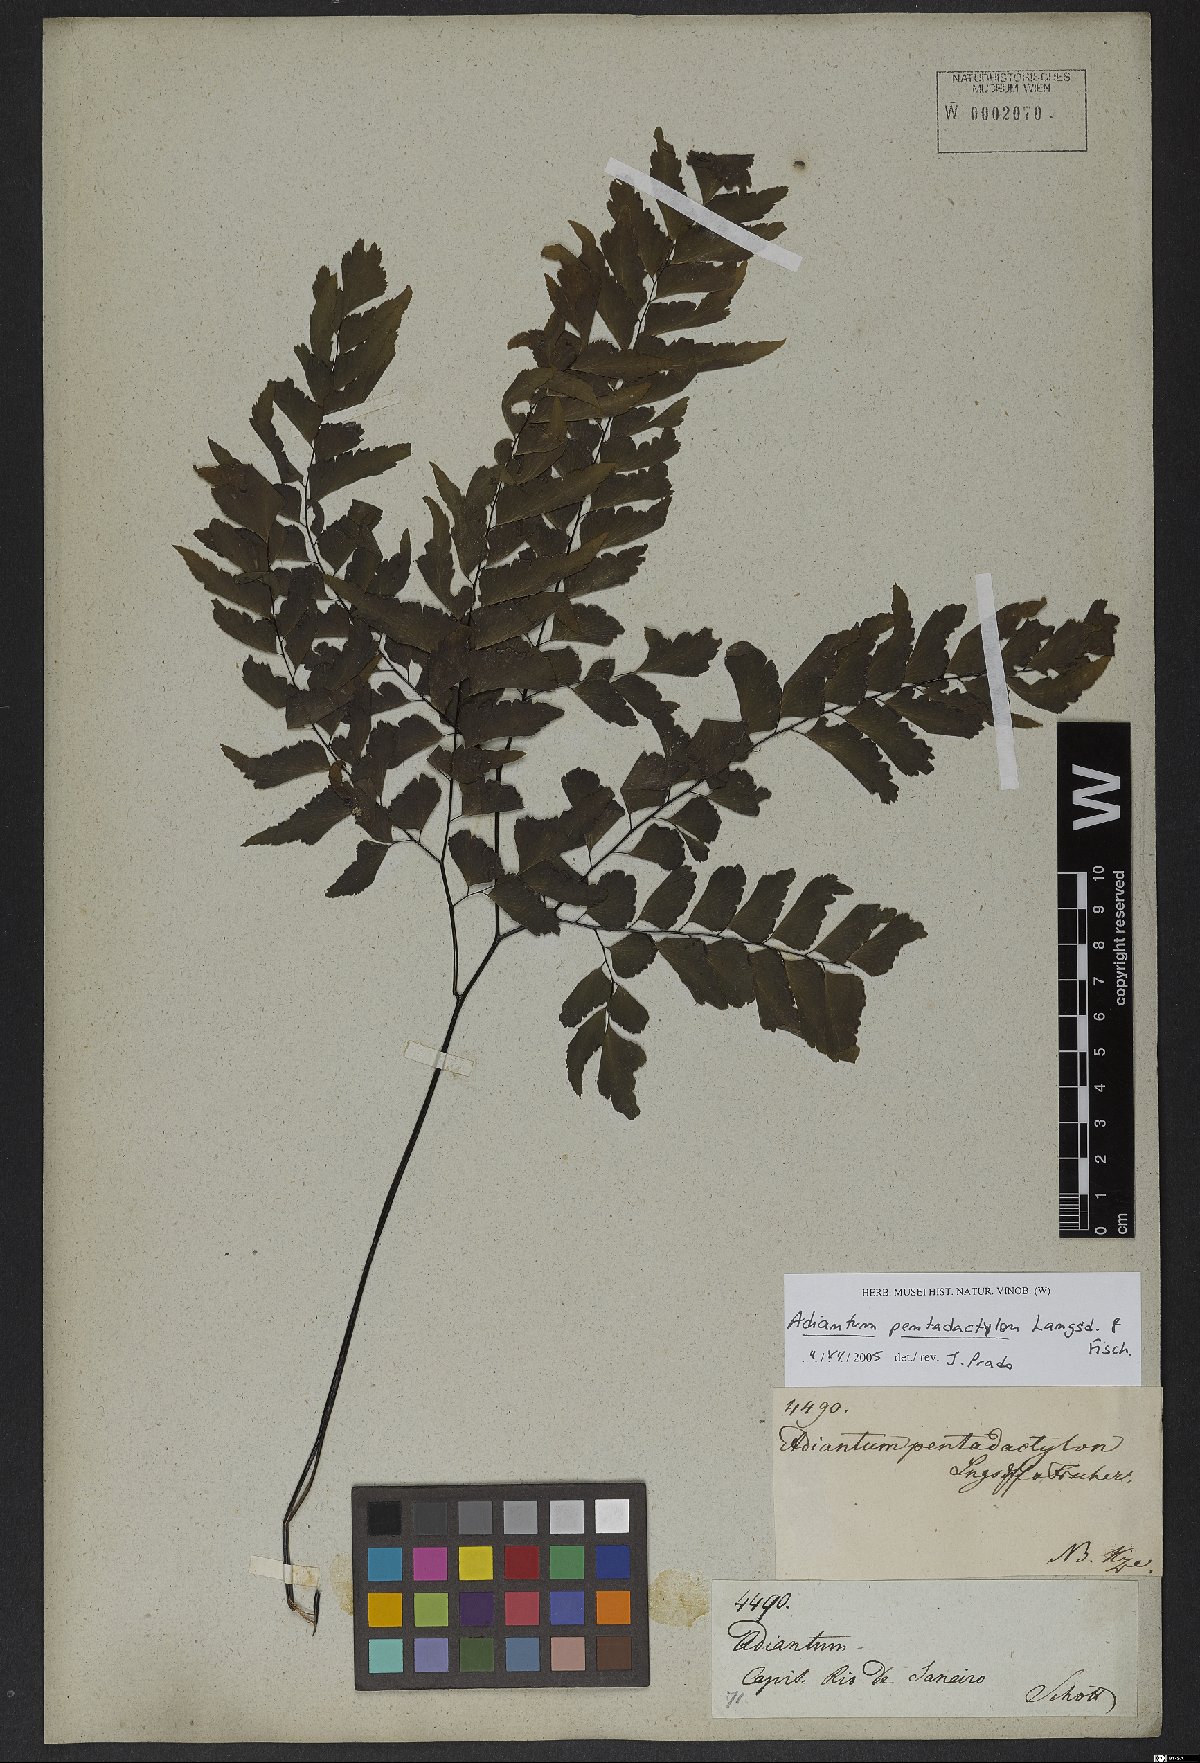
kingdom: Plantae
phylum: Tracheophyta
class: Polypodiopsida
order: Polypodiales
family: Pteridaceae
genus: Adiantum
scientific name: Adiantum pentadactylon
